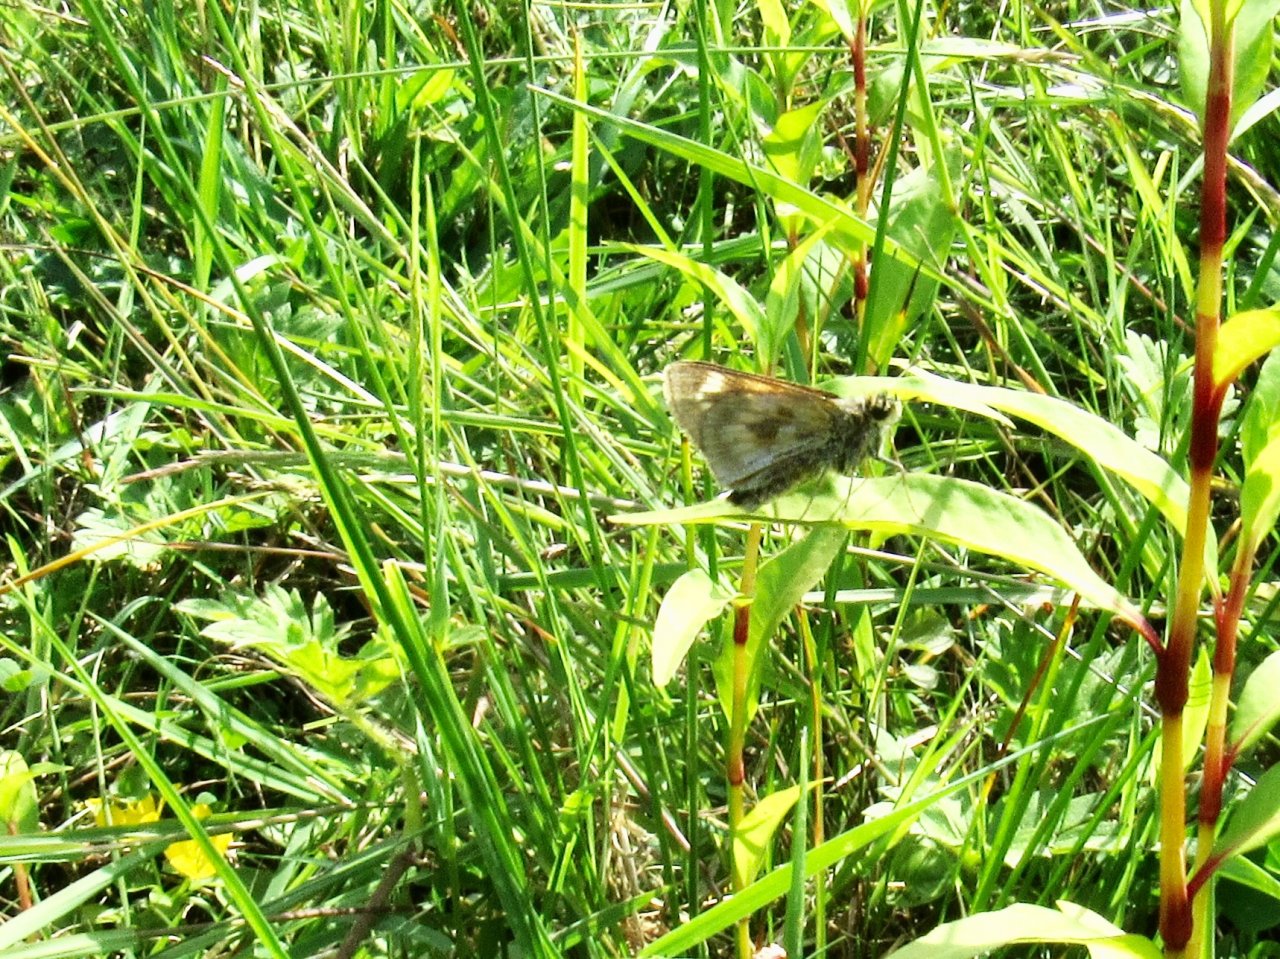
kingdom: Animalia
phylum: Arthropoda
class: Insecta
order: Lepidoptera
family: Hesperiidae
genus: Polites
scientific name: Polites
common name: Long Dash Skipper
